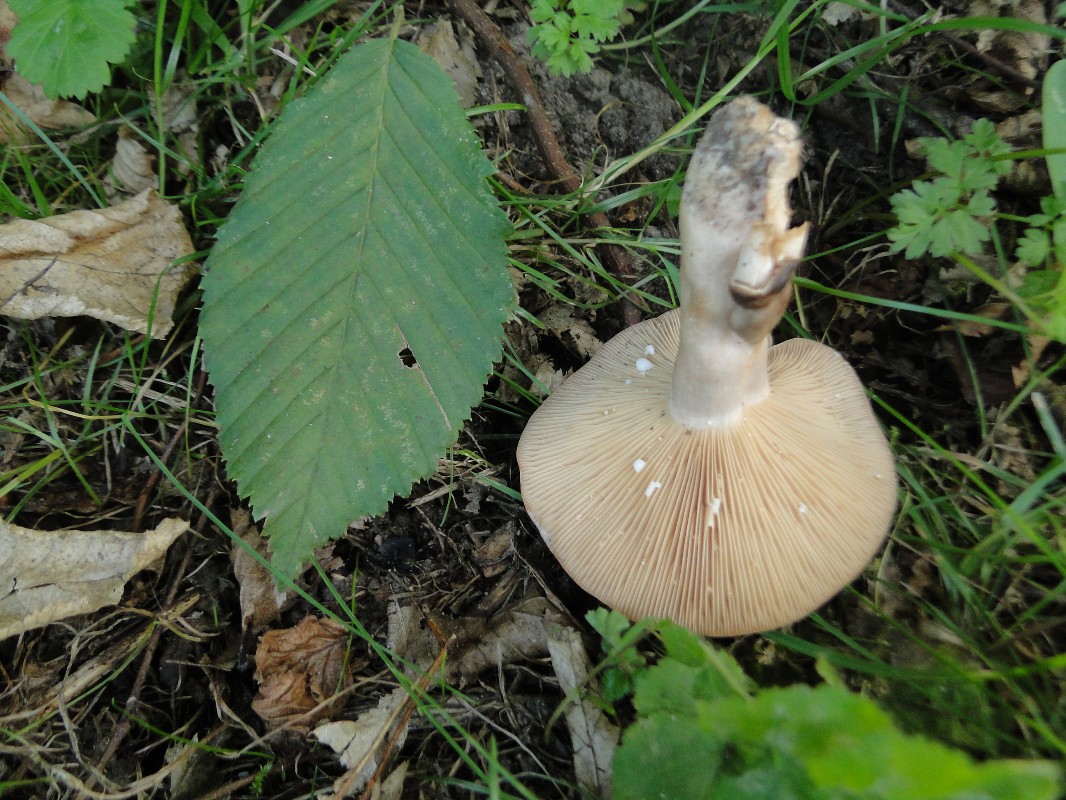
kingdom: Fungi
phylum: Basidiomycota
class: Agaricomycetes
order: Russulales
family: Russulaceae
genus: Lactarius
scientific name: Lactarius circellatus
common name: avnbøg-mælkehat
